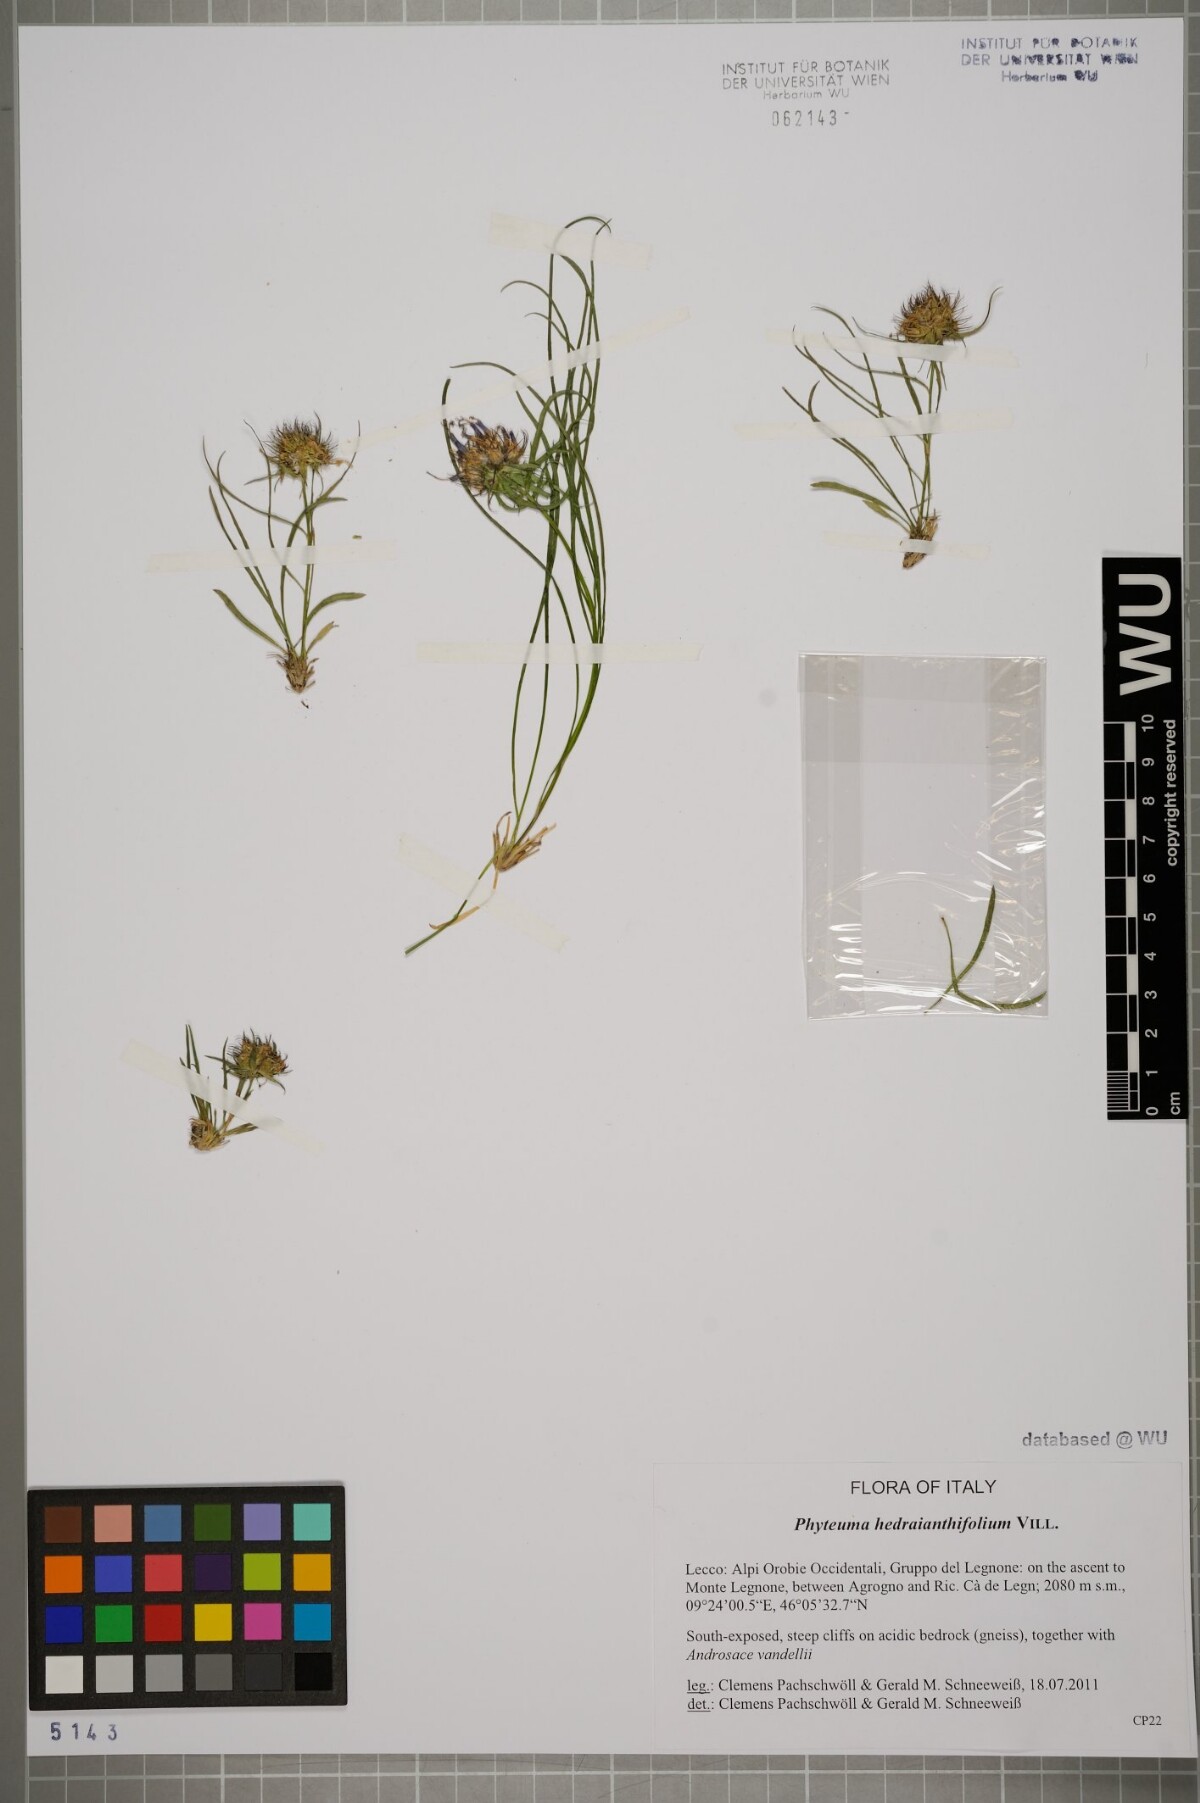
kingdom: Plantae
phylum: Tracheophyta
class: Magnoliopsida
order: Asterales
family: Campanulaceae
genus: Phyteuma
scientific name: Phyteuma hedraianthifolium
